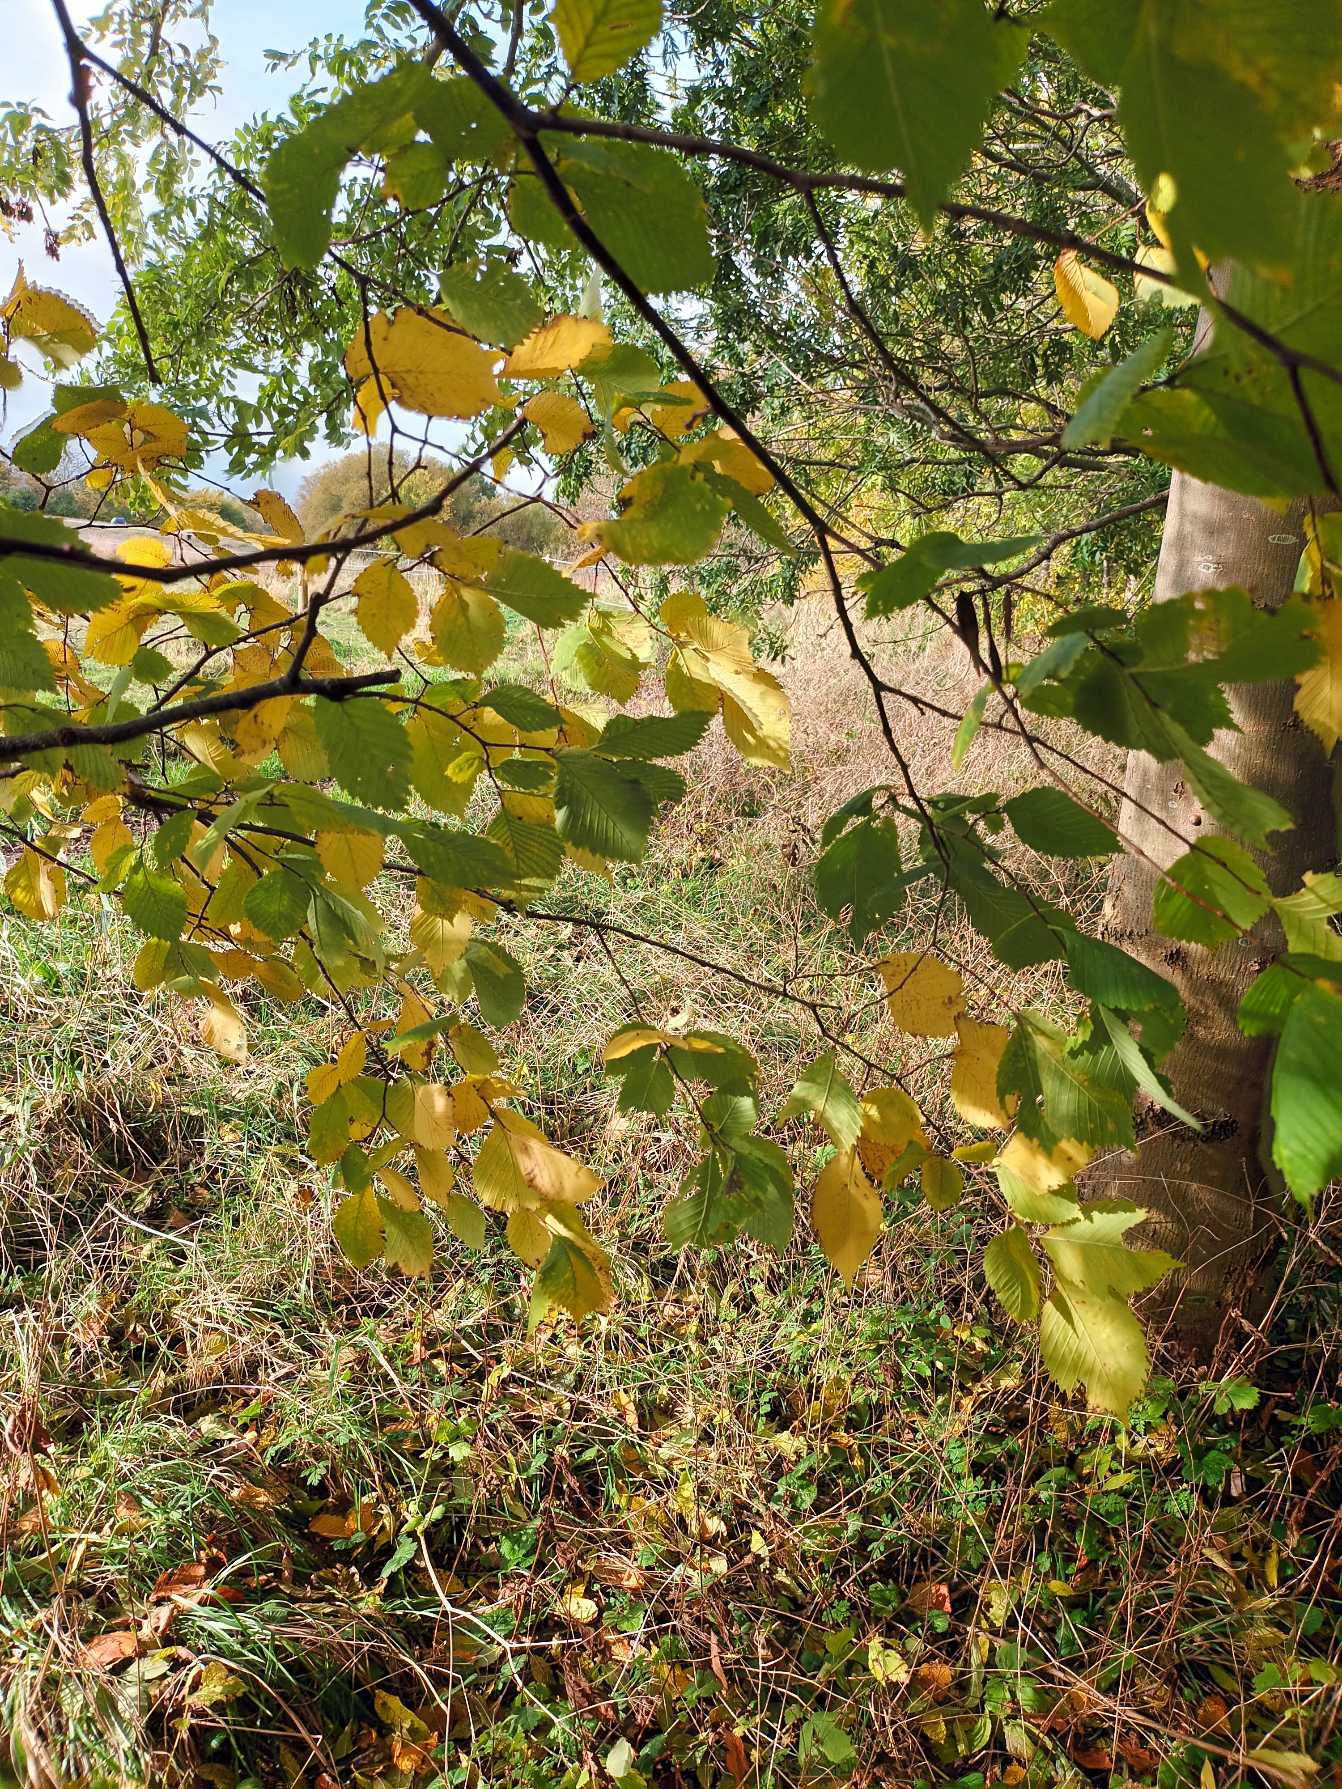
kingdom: Plantae
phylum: Tracheophyta
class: Magnoliopsida
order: Rosales
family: Ulmaceae
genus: Ulmus
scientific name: Ulmus laevis
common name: Skærm-elm
